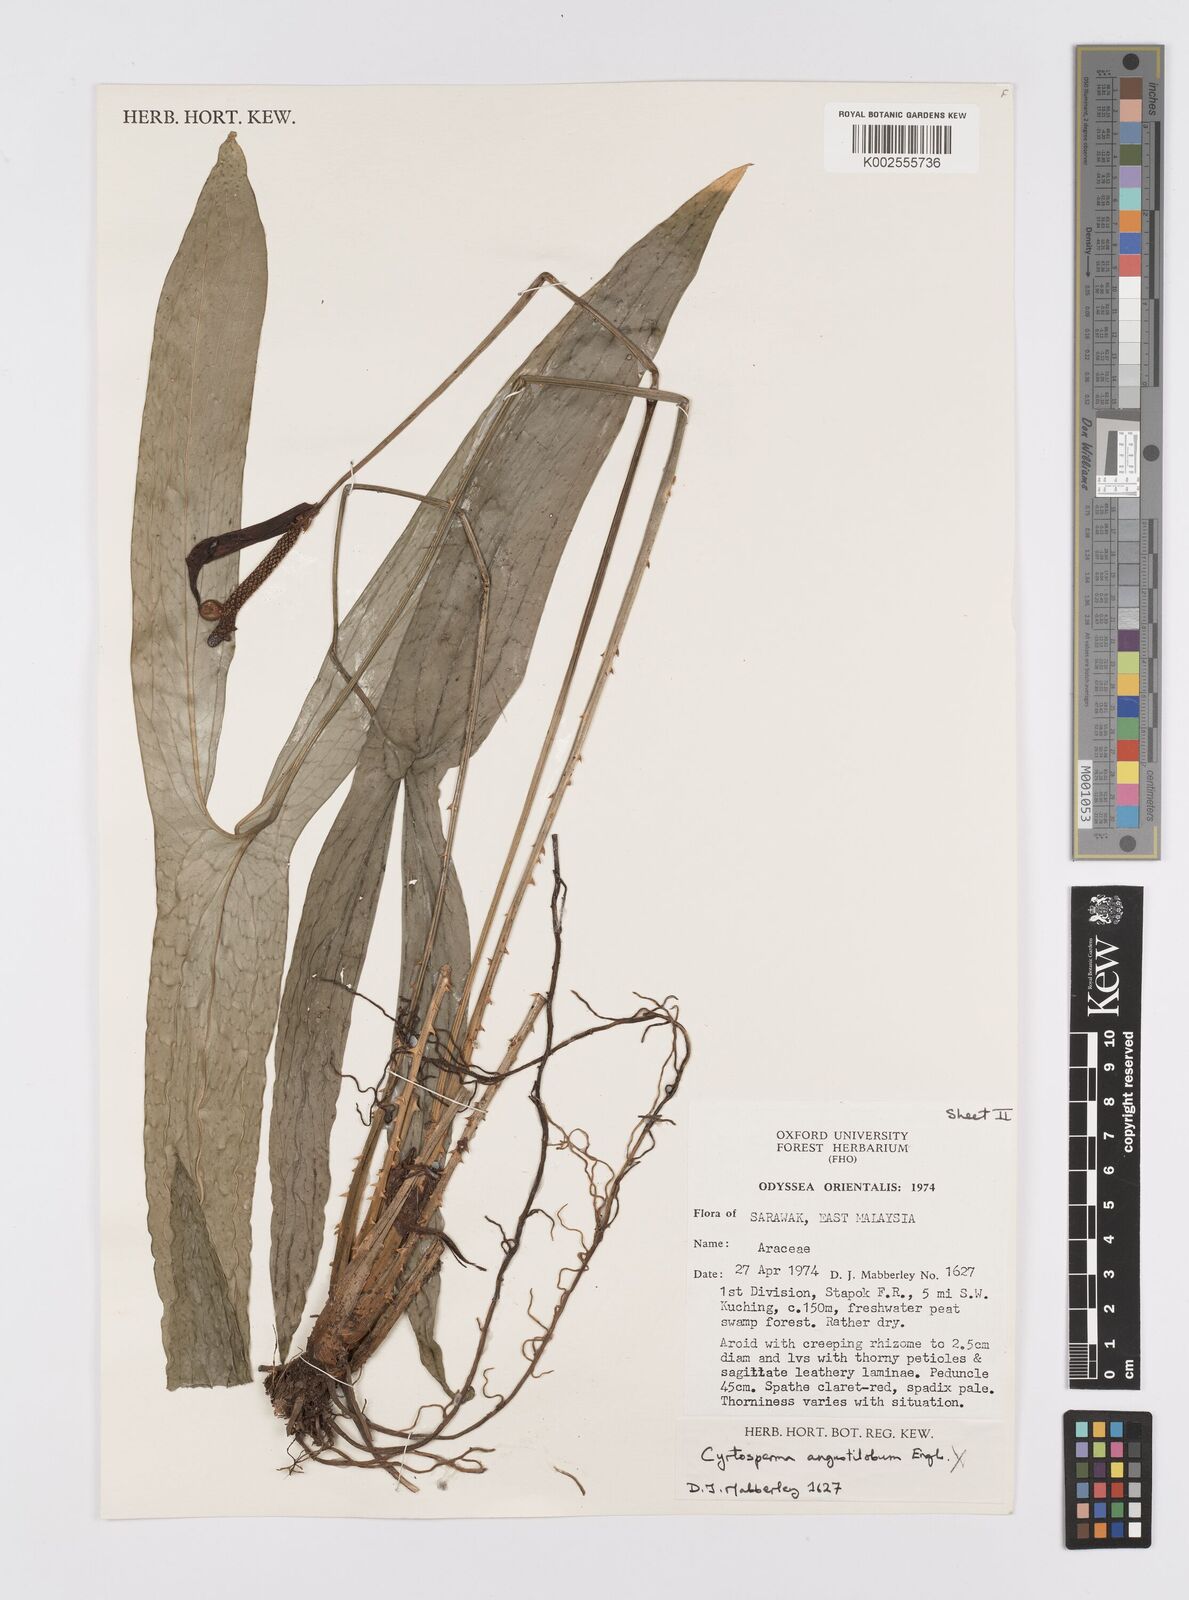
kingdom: Plantae
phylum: Tracheophyta
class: Liliopsida
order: Alismatales
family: Araceae
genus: Podolasia
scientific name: Podolasia stipitata
